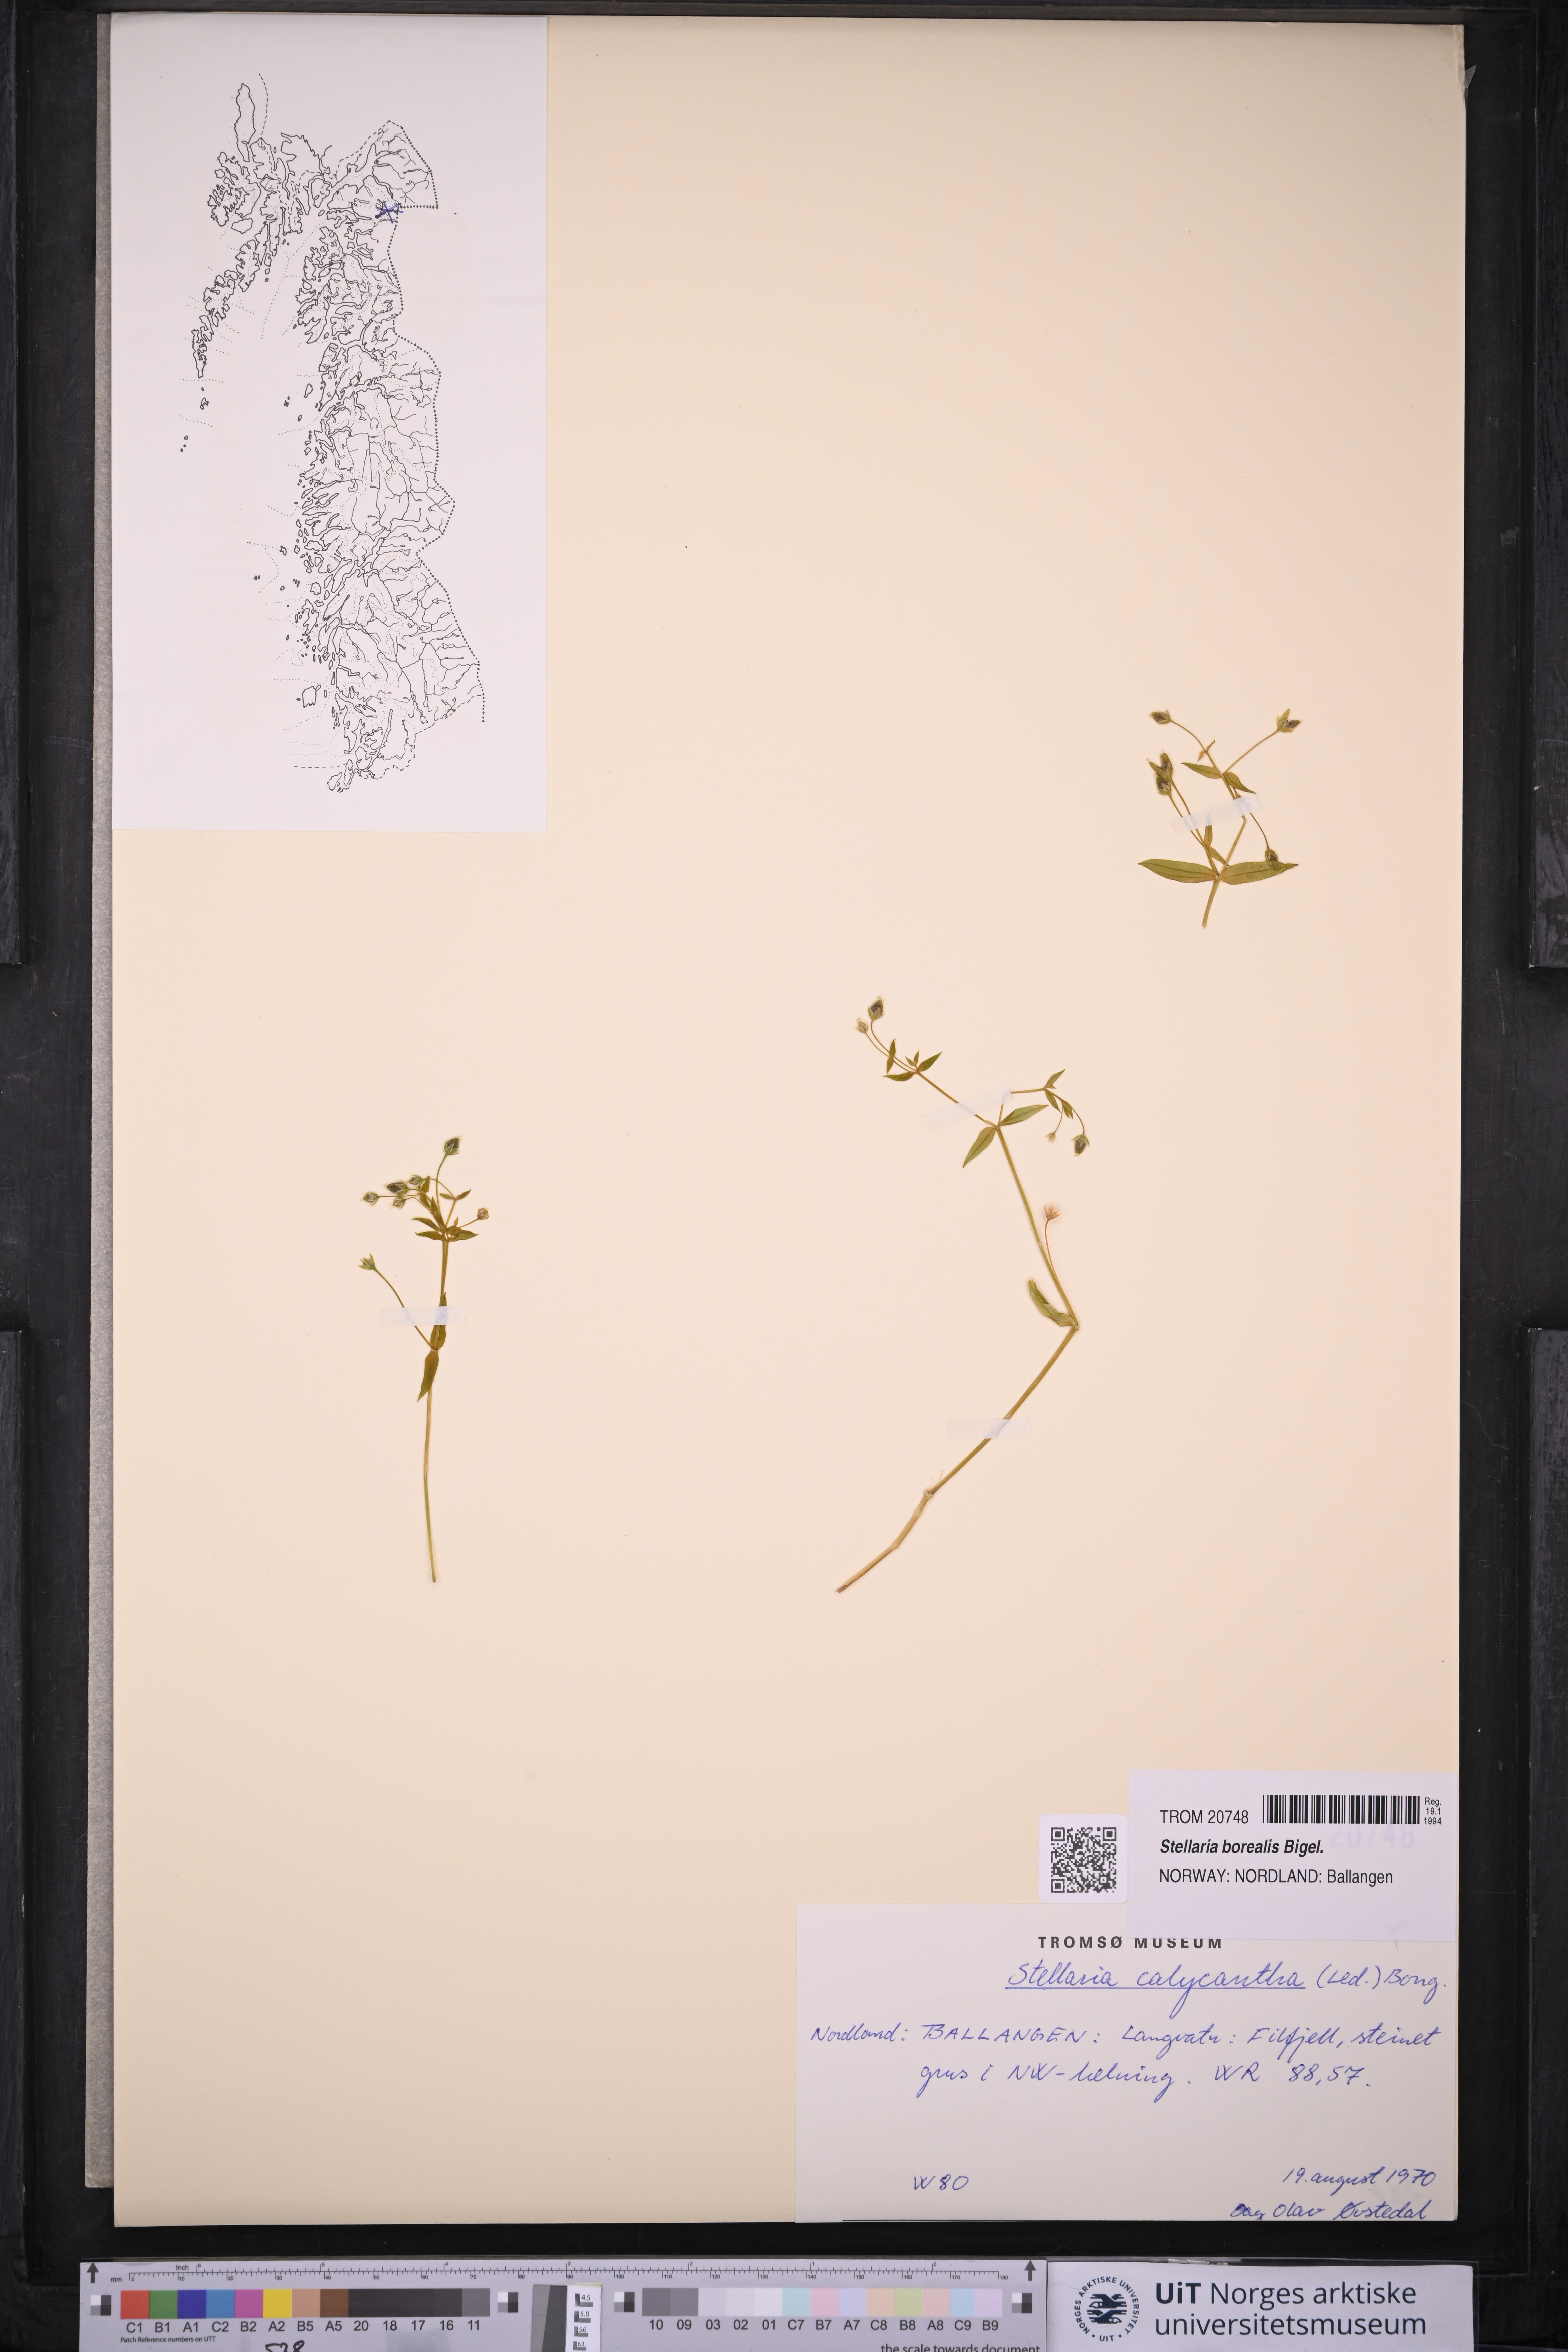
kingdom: Plantae
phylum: Tracheophyta
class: Magnoliopsida
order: Caryophyllales
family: Caryophyllaceae
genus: Stellaria
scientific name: Stellaria borealis
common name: Boreal starwort
